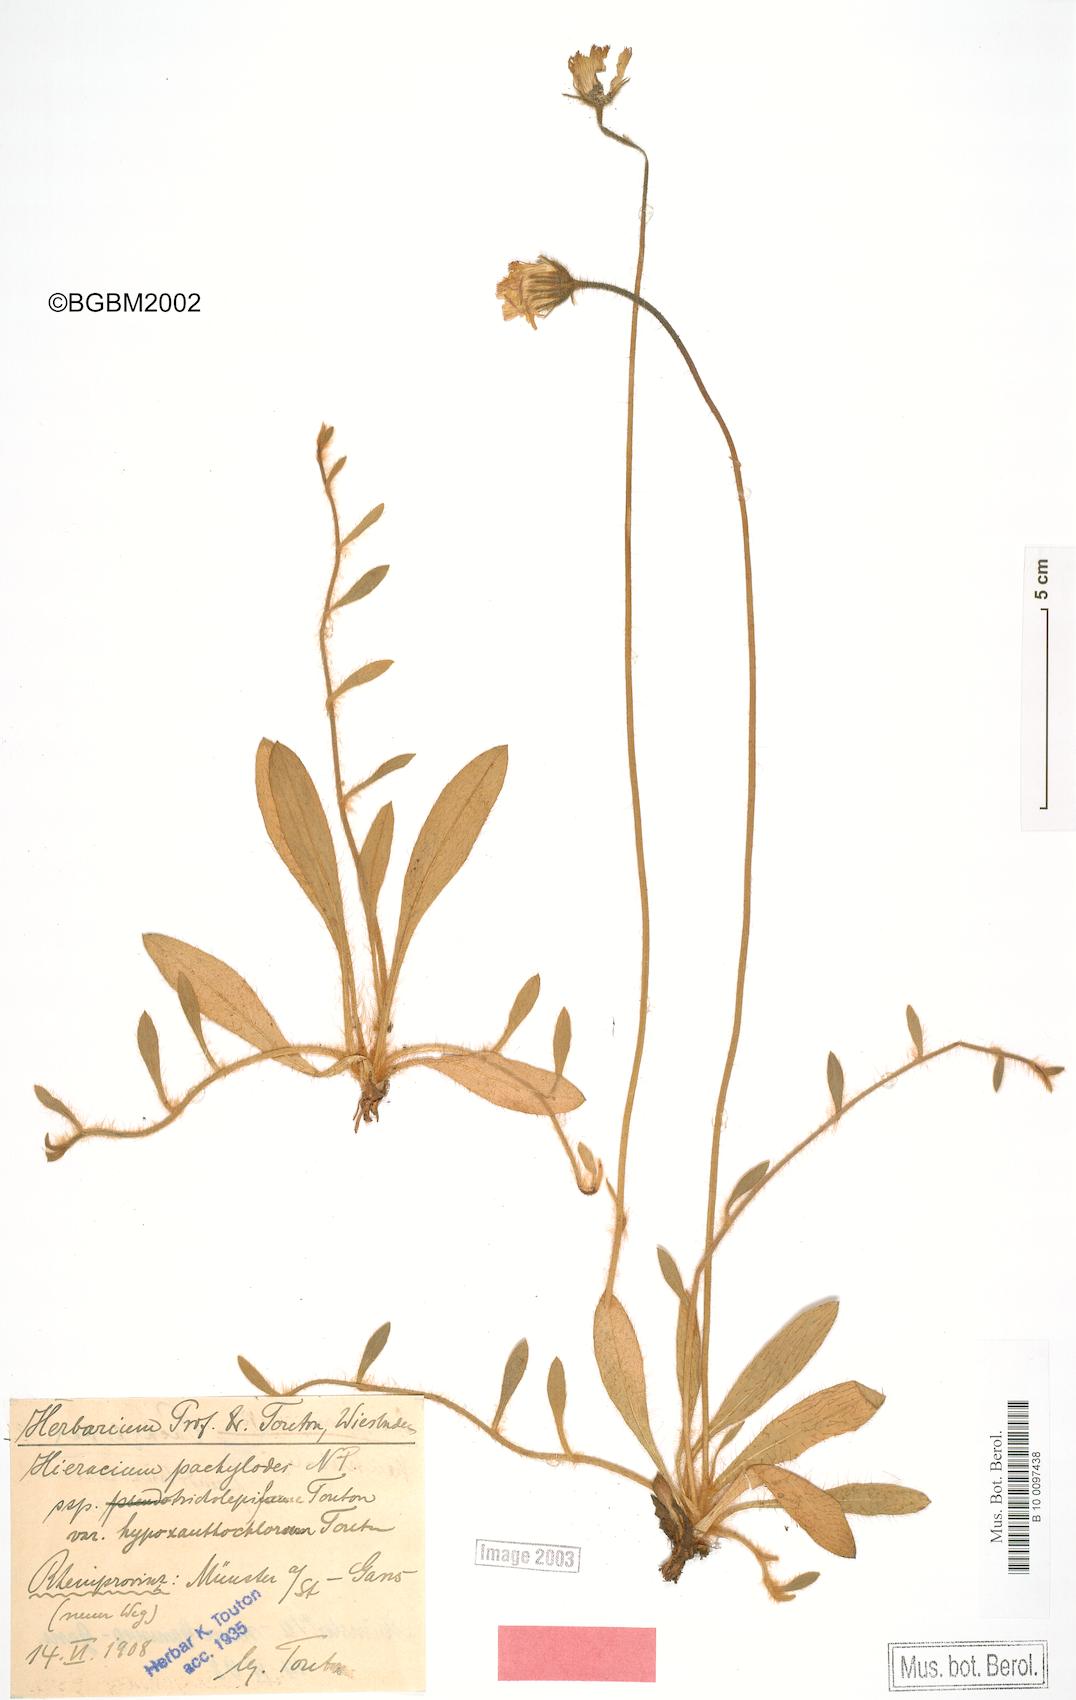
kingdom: Plantae
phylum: Tracheophyta
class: Magnoliopsida
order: Asterales
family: Asteraceae
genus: Pilosella
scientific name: Pilosella longisquama
